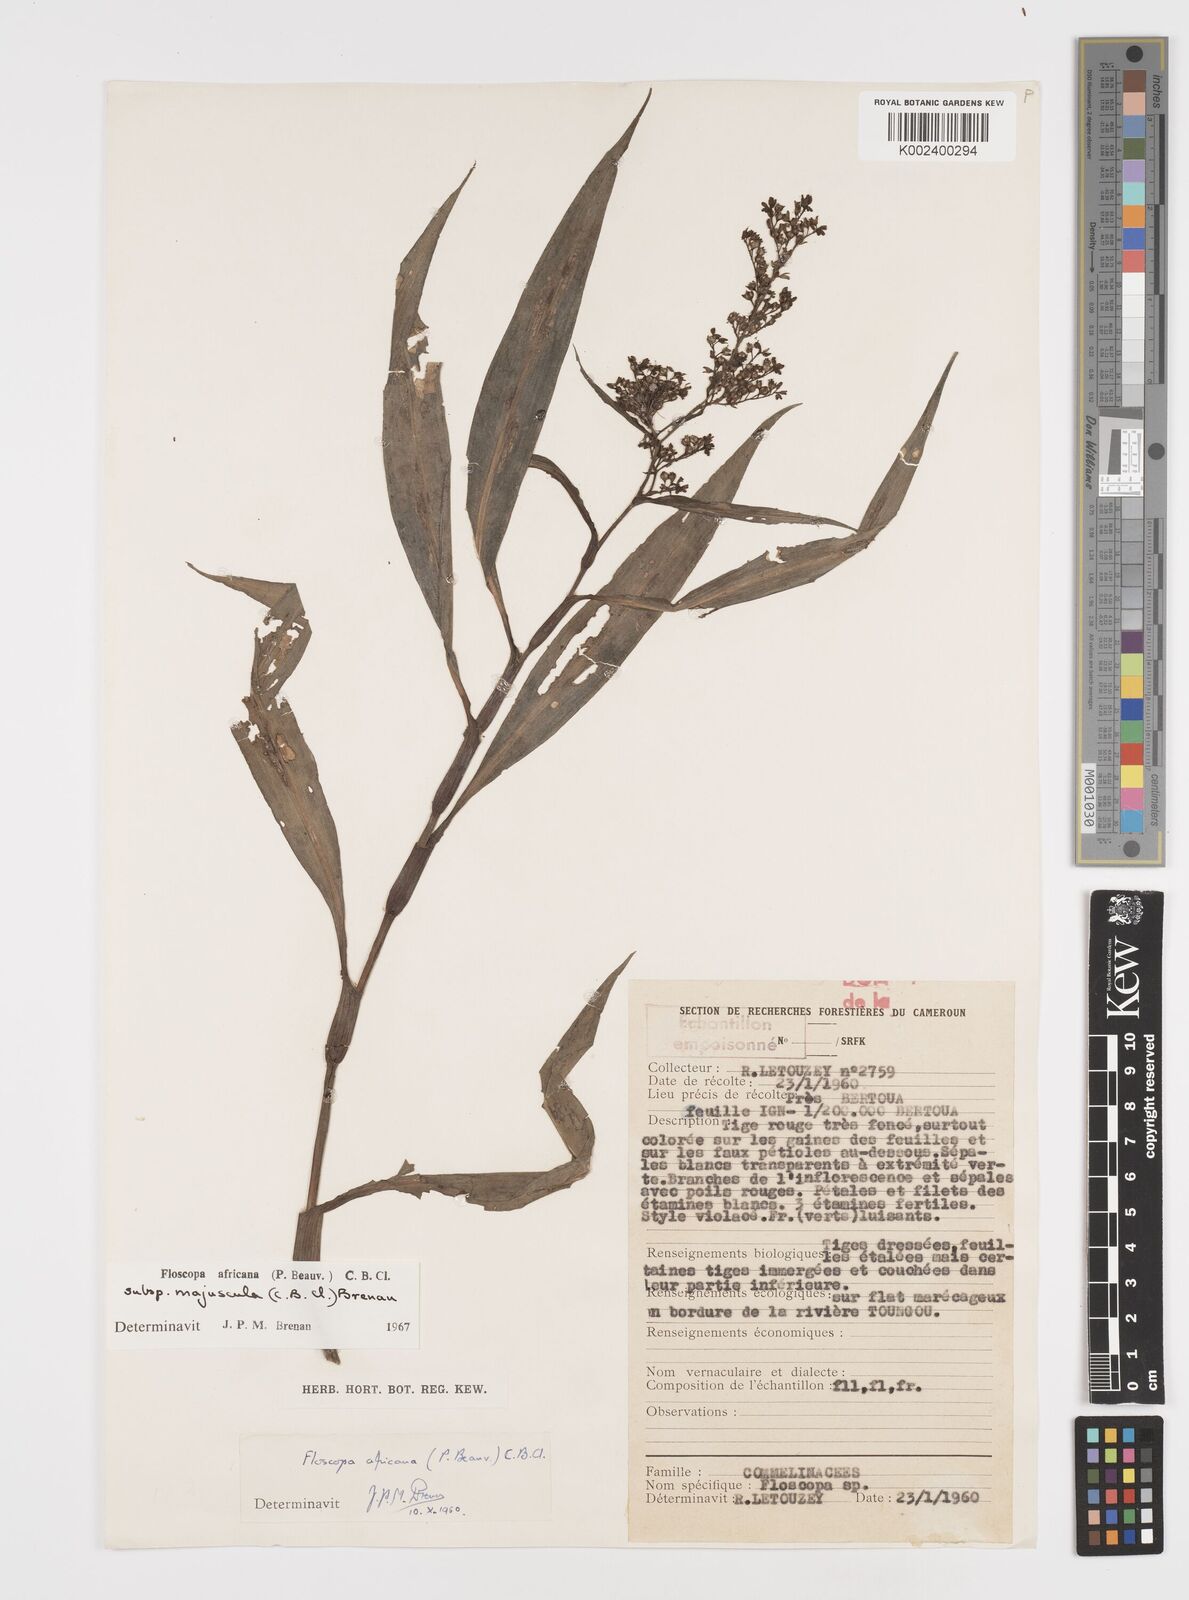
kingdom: Plantae
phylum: Tracheophyta
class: Liliopsida
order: Commelinales
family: Commelinaceae
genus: Floscopa
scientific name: Floscopa africana
